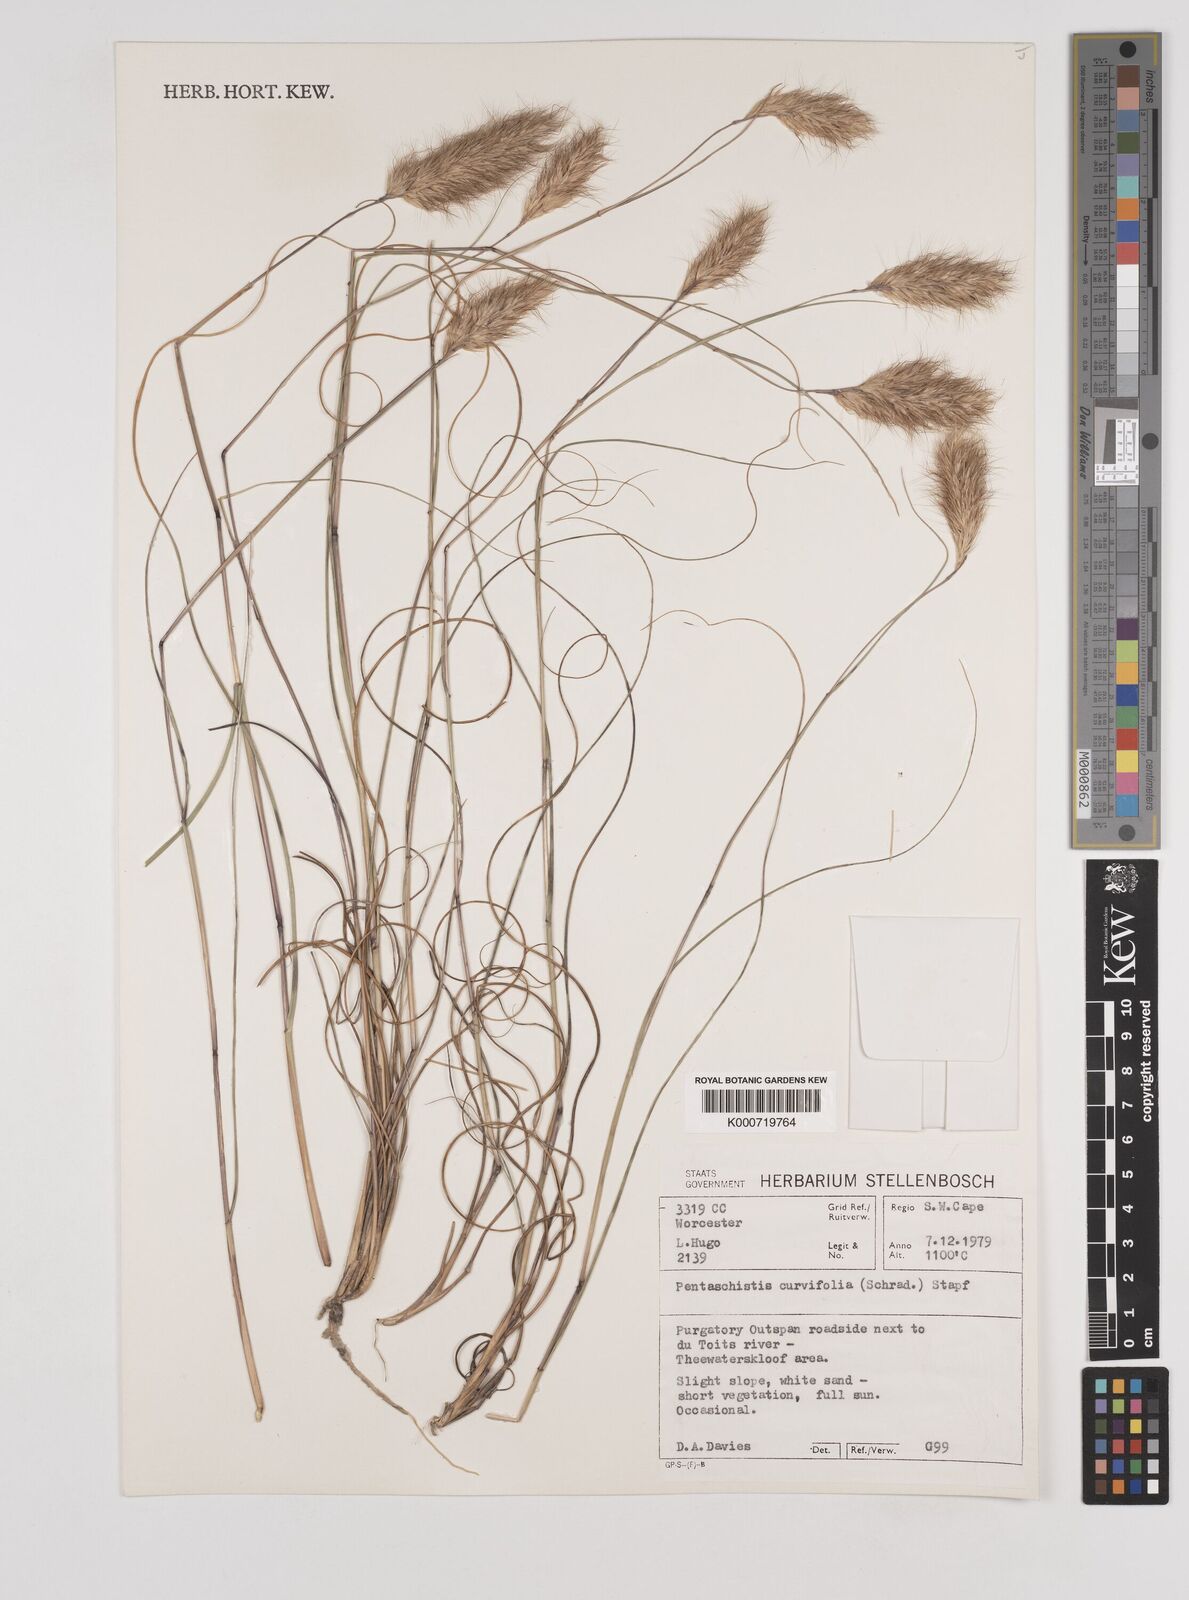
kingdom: Plantae
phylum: Tracheophyta
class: Liliopsida
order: Poales
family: Poaceae
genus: Pentameris
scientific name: Pentameris curvifolia
